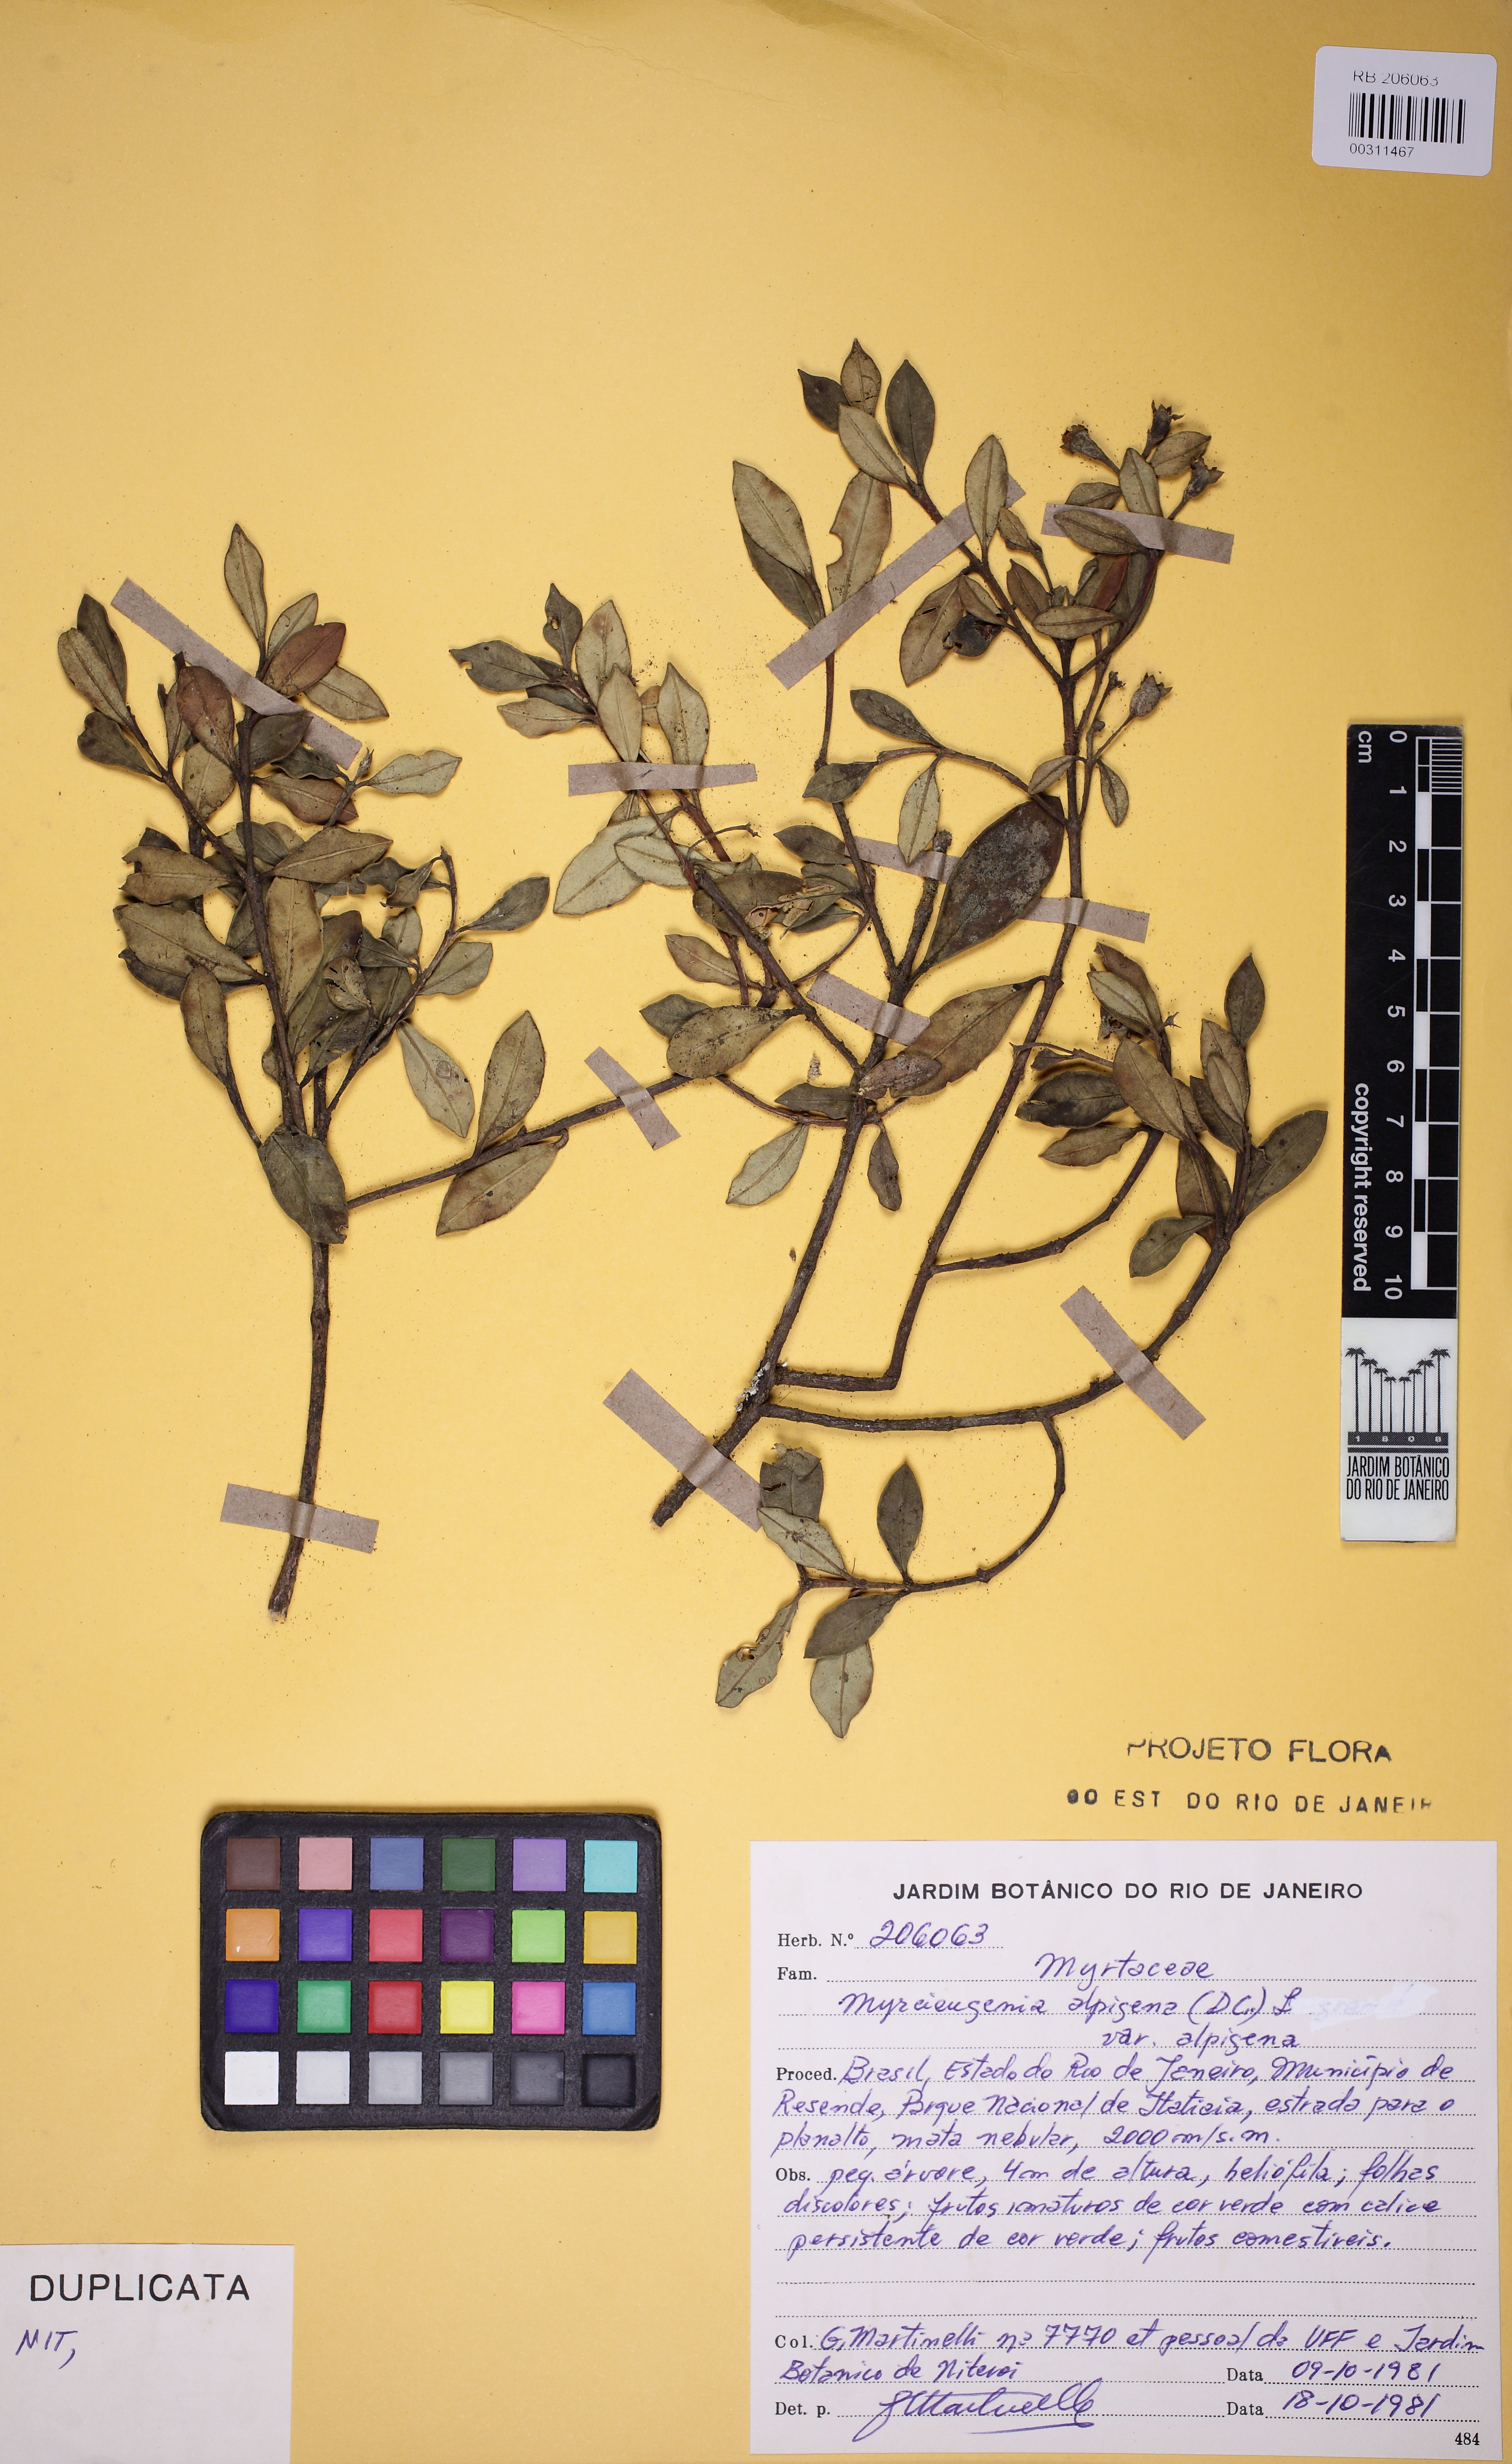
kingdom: Plantae
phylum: Tracheophyta
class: Magnoliopsida
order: Myrtales
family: Myrtaceae
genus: Myrceugenia
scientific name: Myrceugenia alpigena
